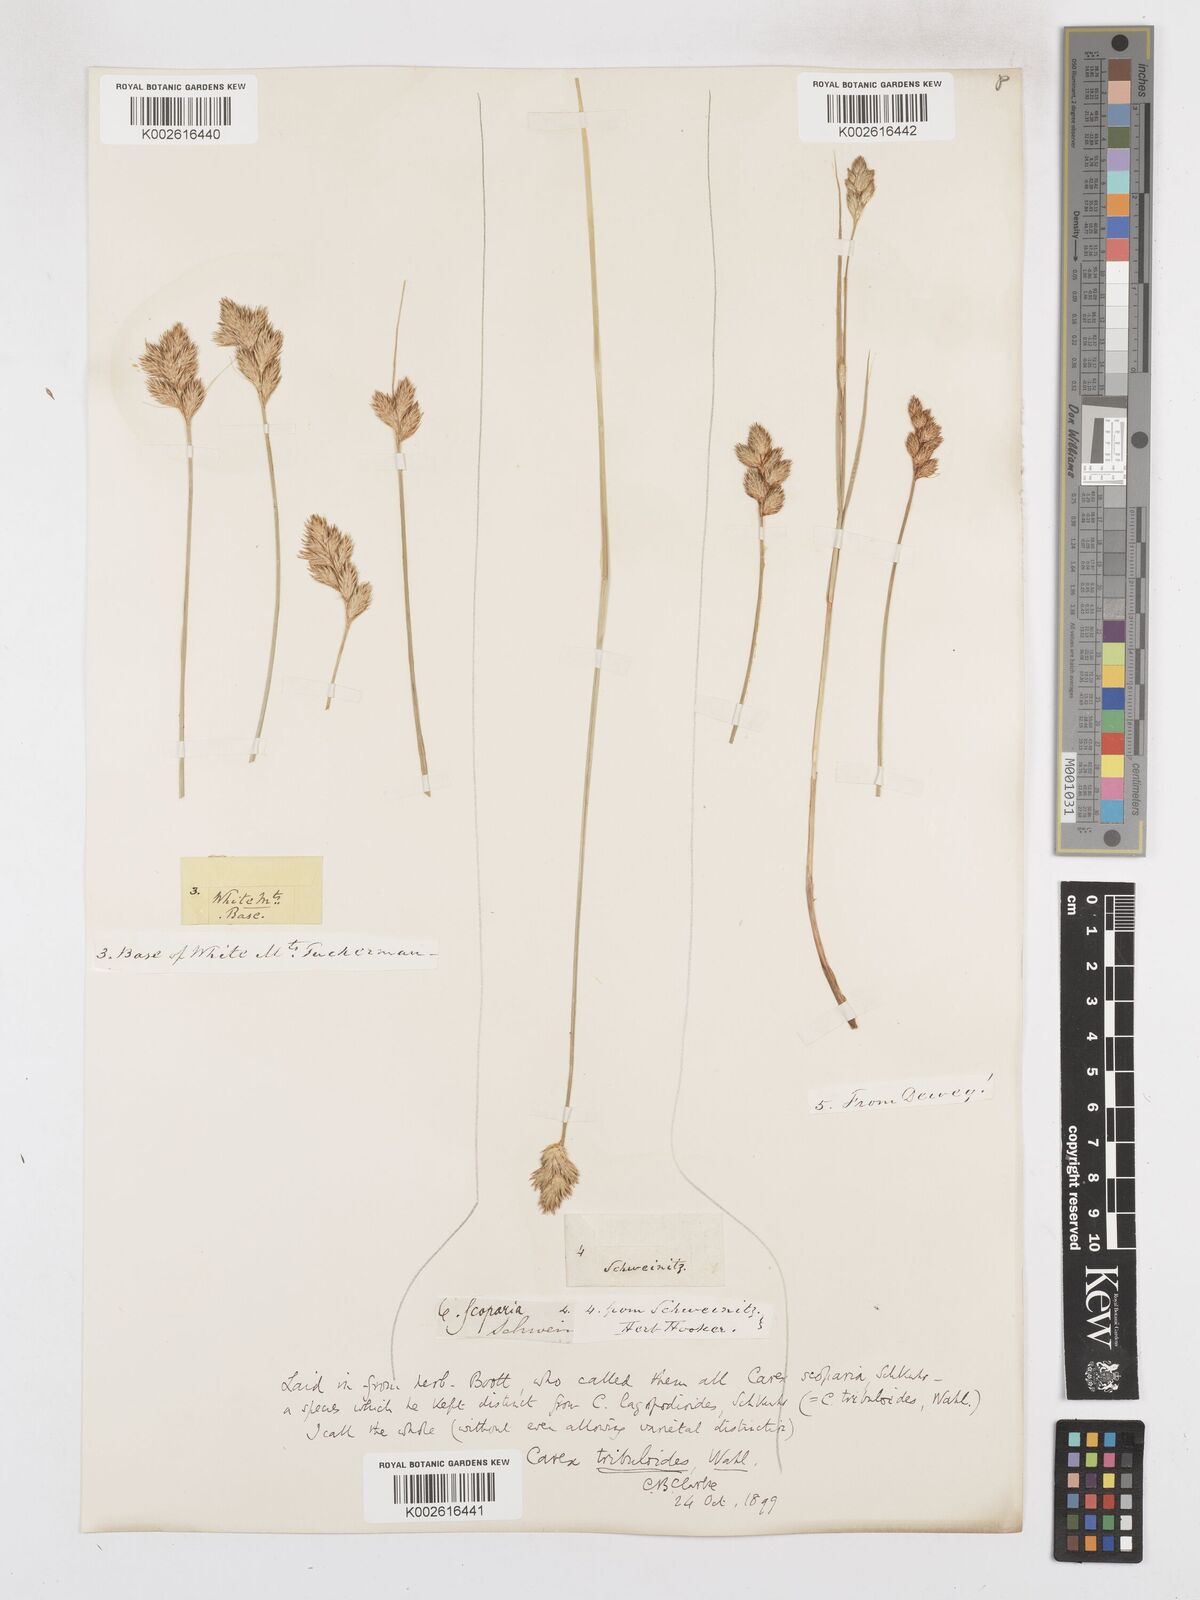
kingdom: Plantae
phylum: Tracheophyta
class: Liliopsida
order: Poales
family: Cyperaceae
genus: Carex
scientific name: Carex tribuloides
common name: Blunt broom sedge
